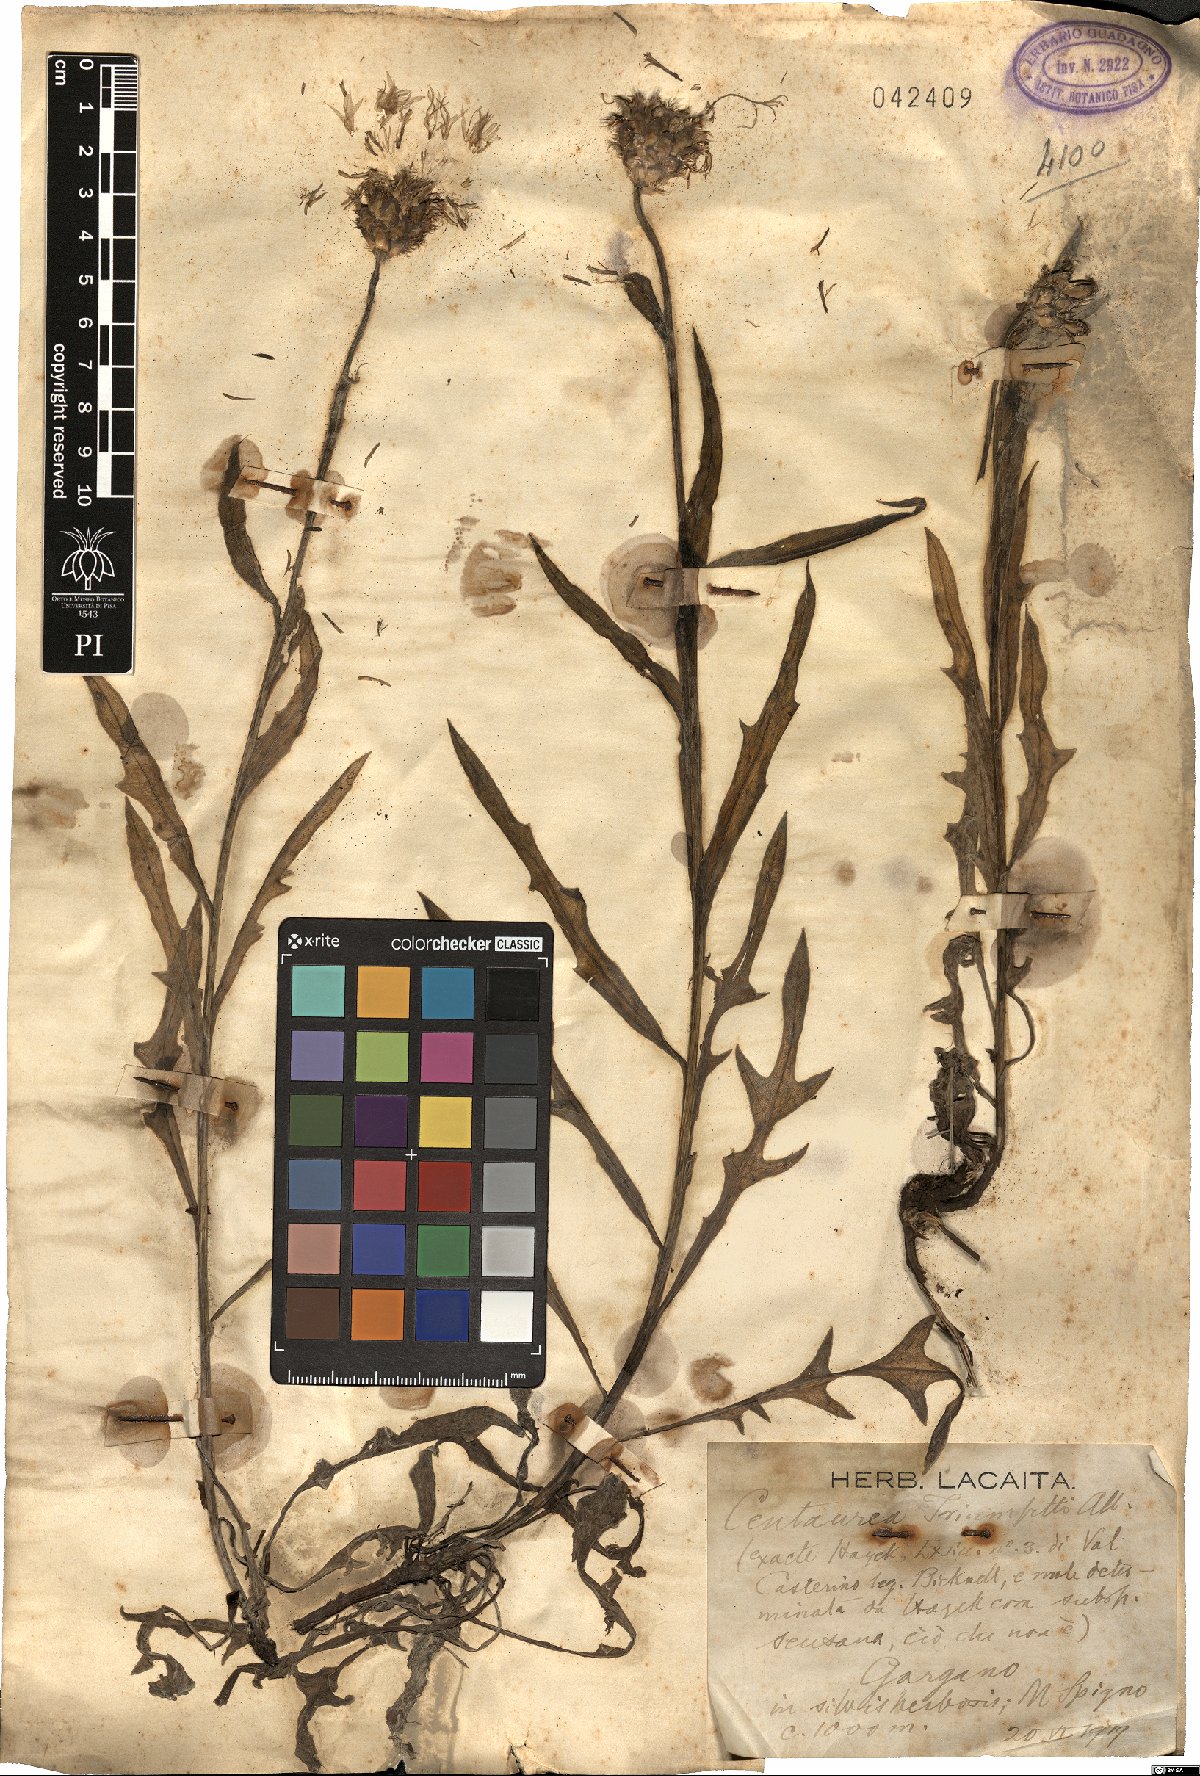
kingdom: Plantae
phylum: Tracheophyta
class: Magnoliopsida
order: Asterales
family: Asteraceae
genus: Centaurea
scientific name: Centaurea triumfettii
